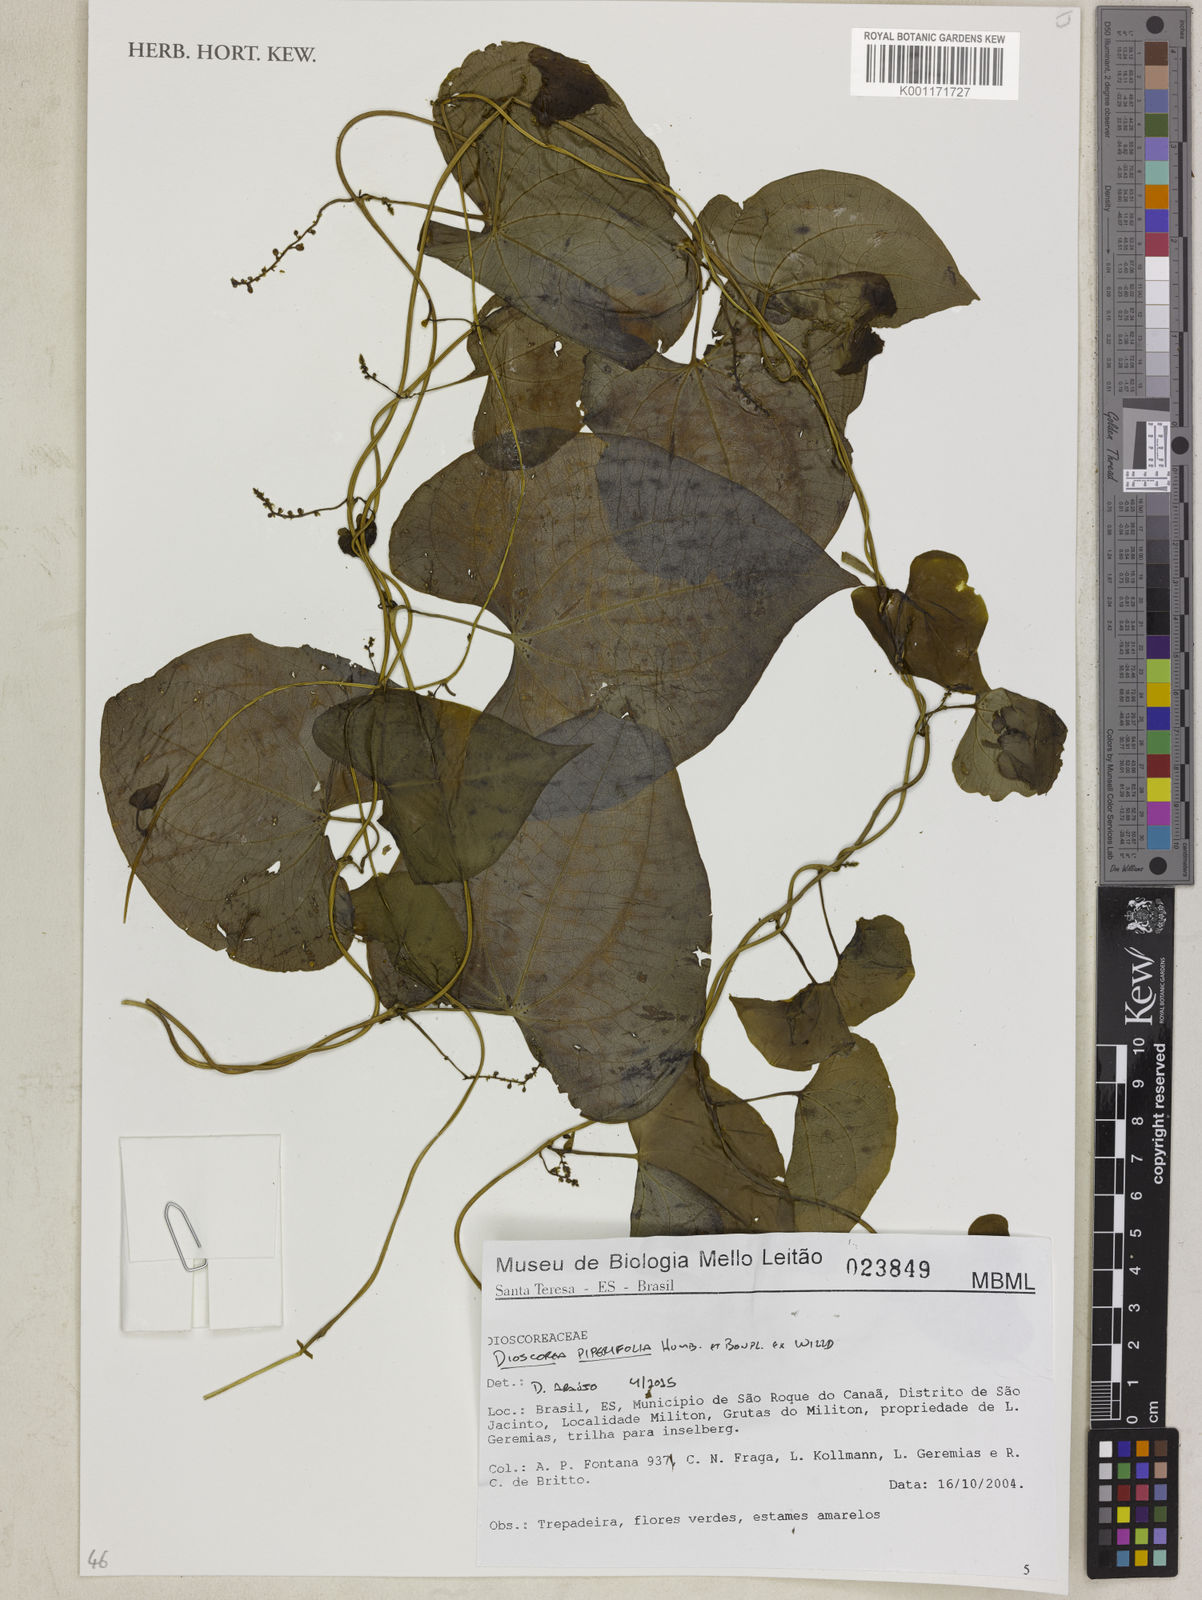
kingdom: Plantae
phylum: Tracheophyta
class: Liliopsida
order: Dioscoreales
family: Dioscoreaceae
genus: Dioscorea
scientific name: Dioscorea piperifolia
